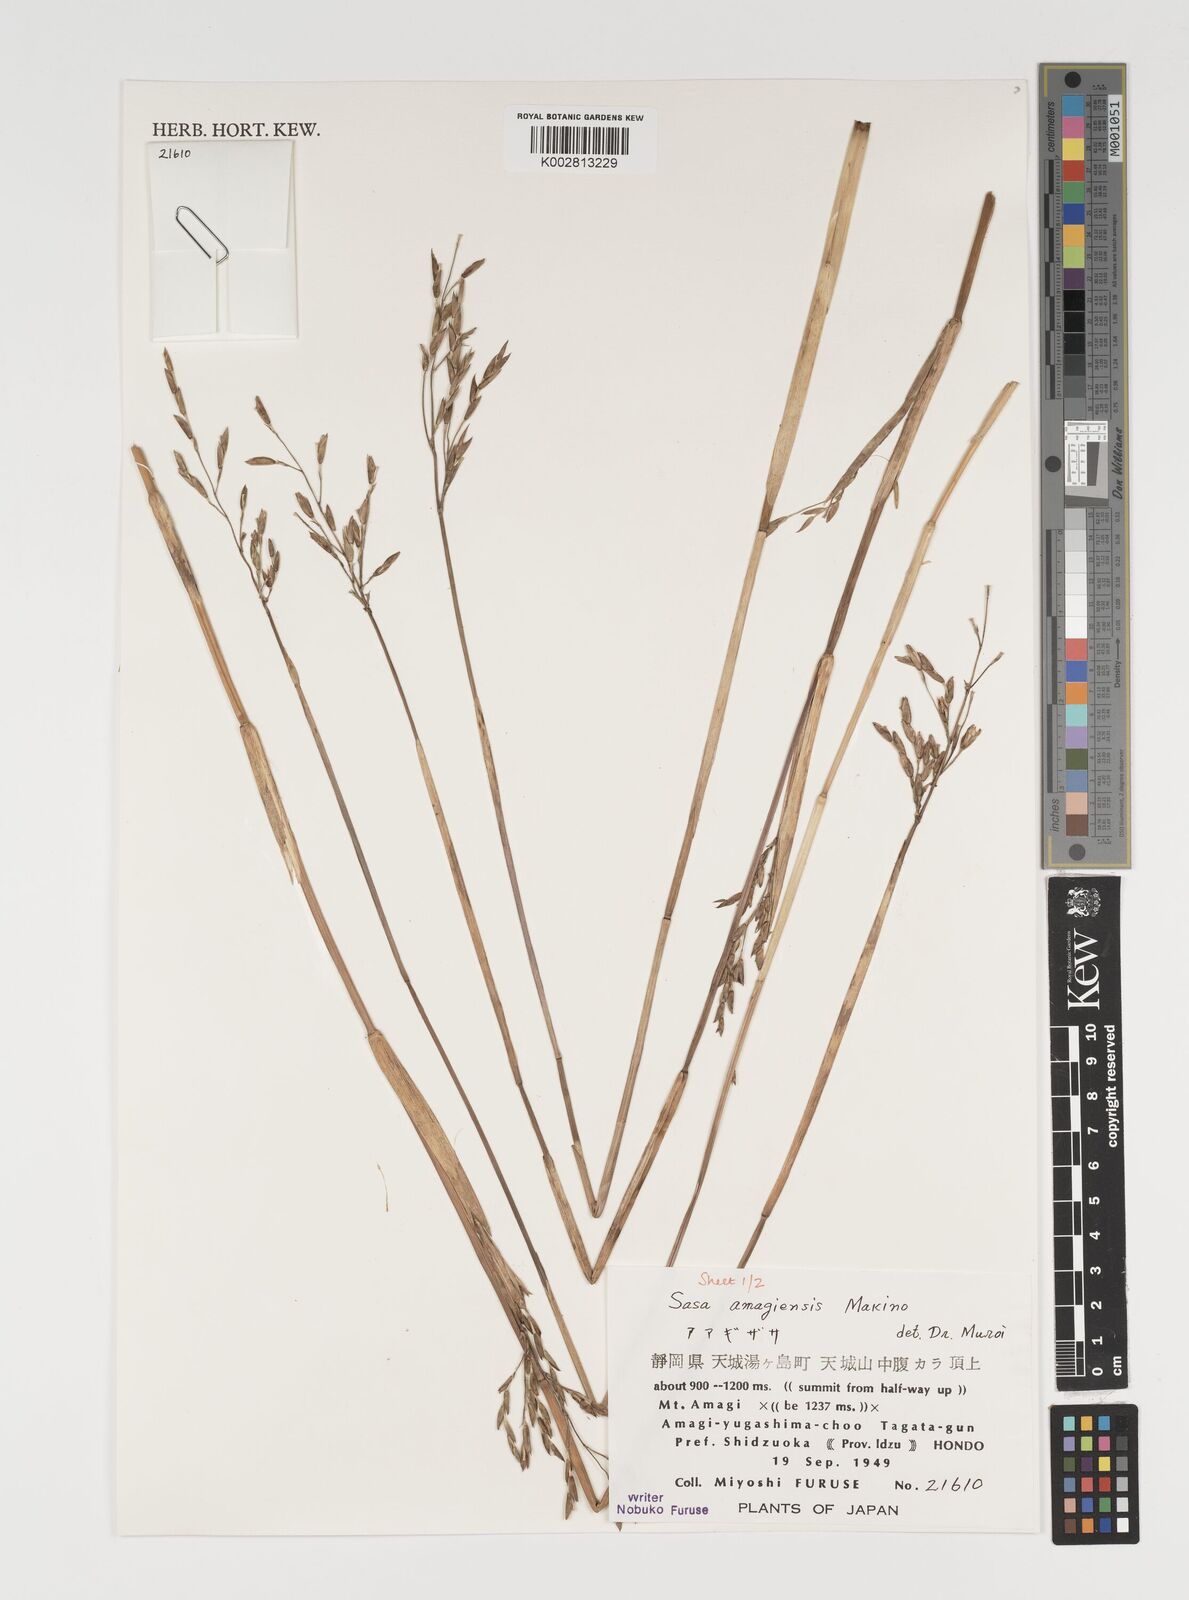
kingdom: Plantae
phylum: Tracheophyta
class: Liliopsida
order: Poales
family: Poaceae
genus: Sasa
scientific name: Sasa tsuboiana
